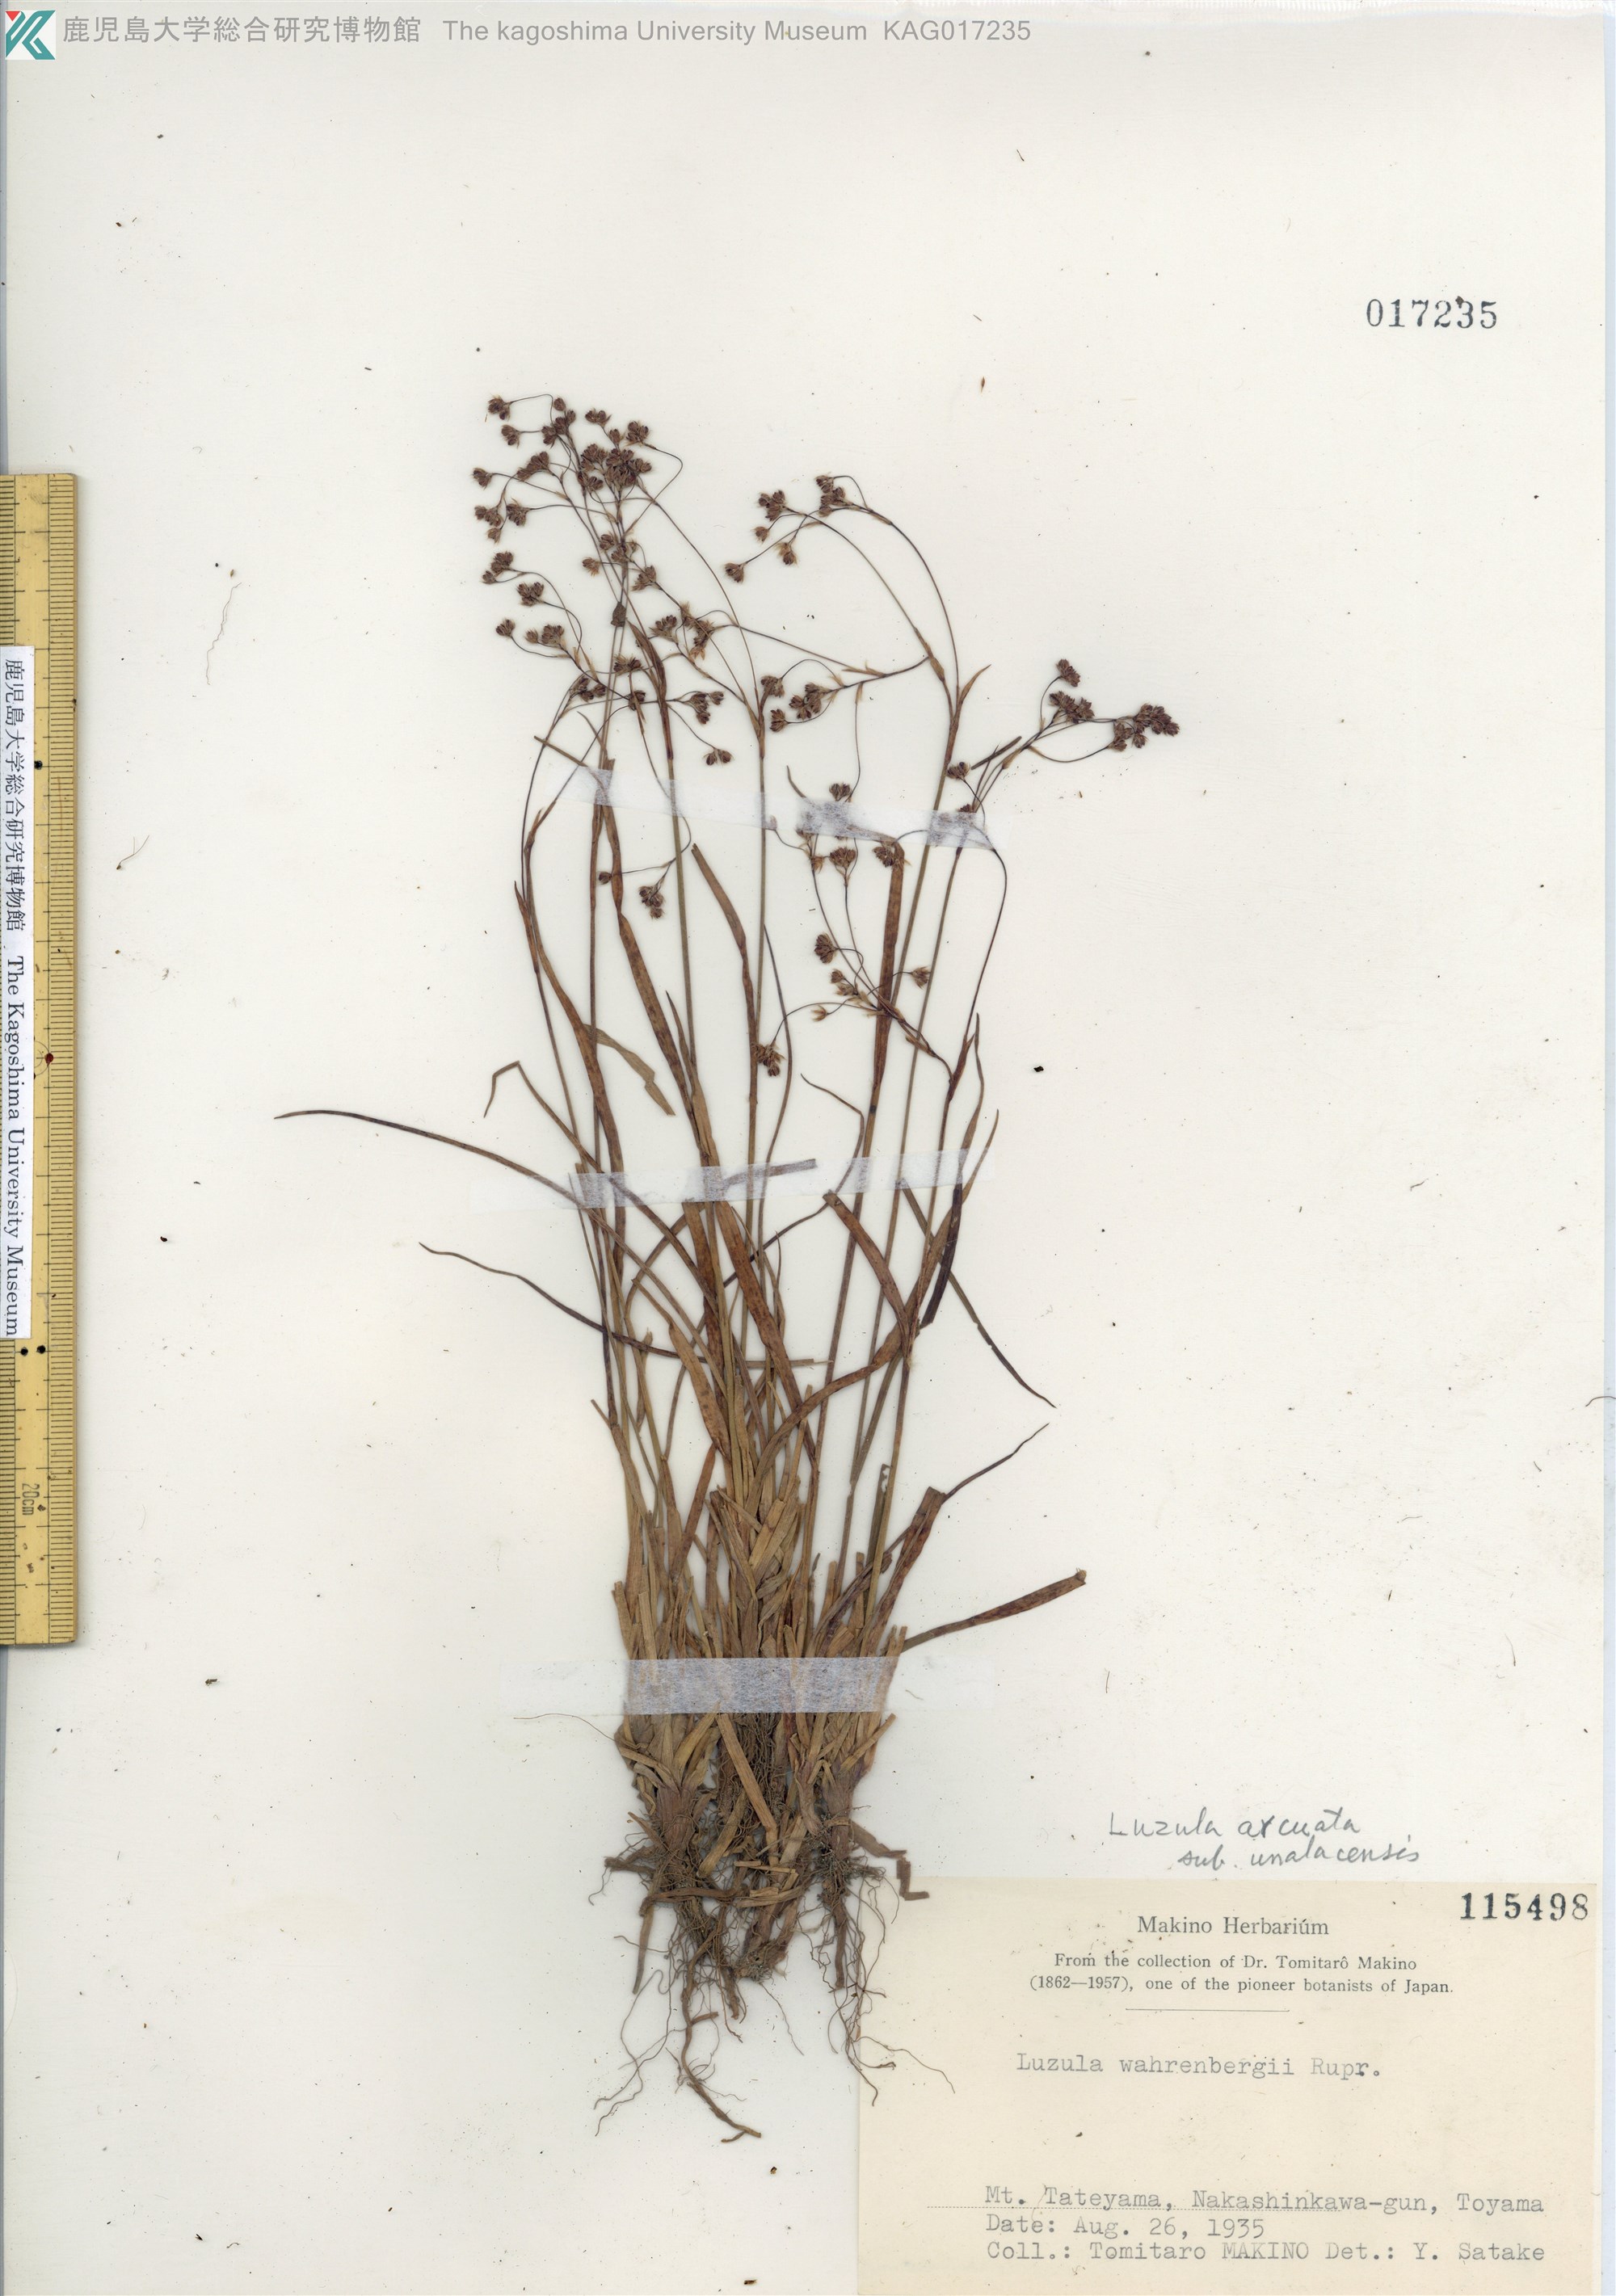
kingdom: Plantae
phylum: Tracheophyta
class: Liliopsida
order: Poales
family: Juncaceae
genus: Luzula
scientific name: Luzula arcuata
